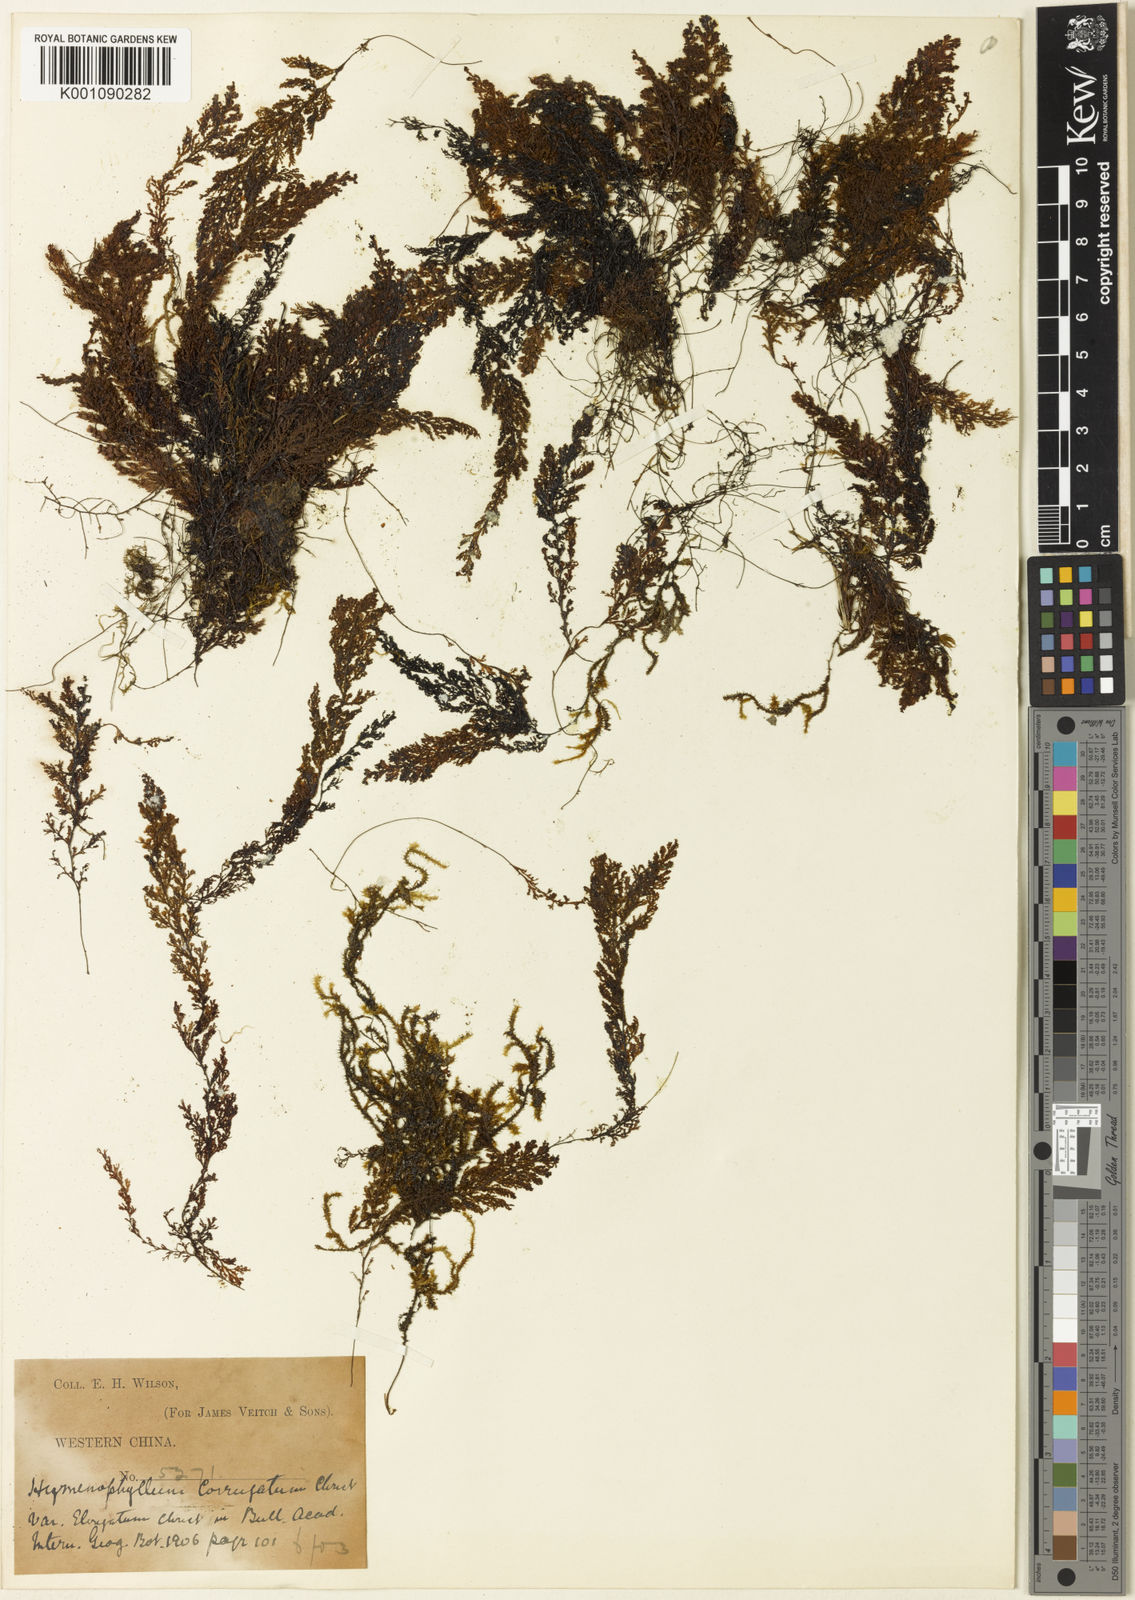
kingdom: Plantae
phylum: Tracheophyta
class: Polypodiopsida
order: Hymenophyllales
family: Hymenophyllaceae
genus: Hymenophyllum
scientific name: Hymenophyllum corrugatum
